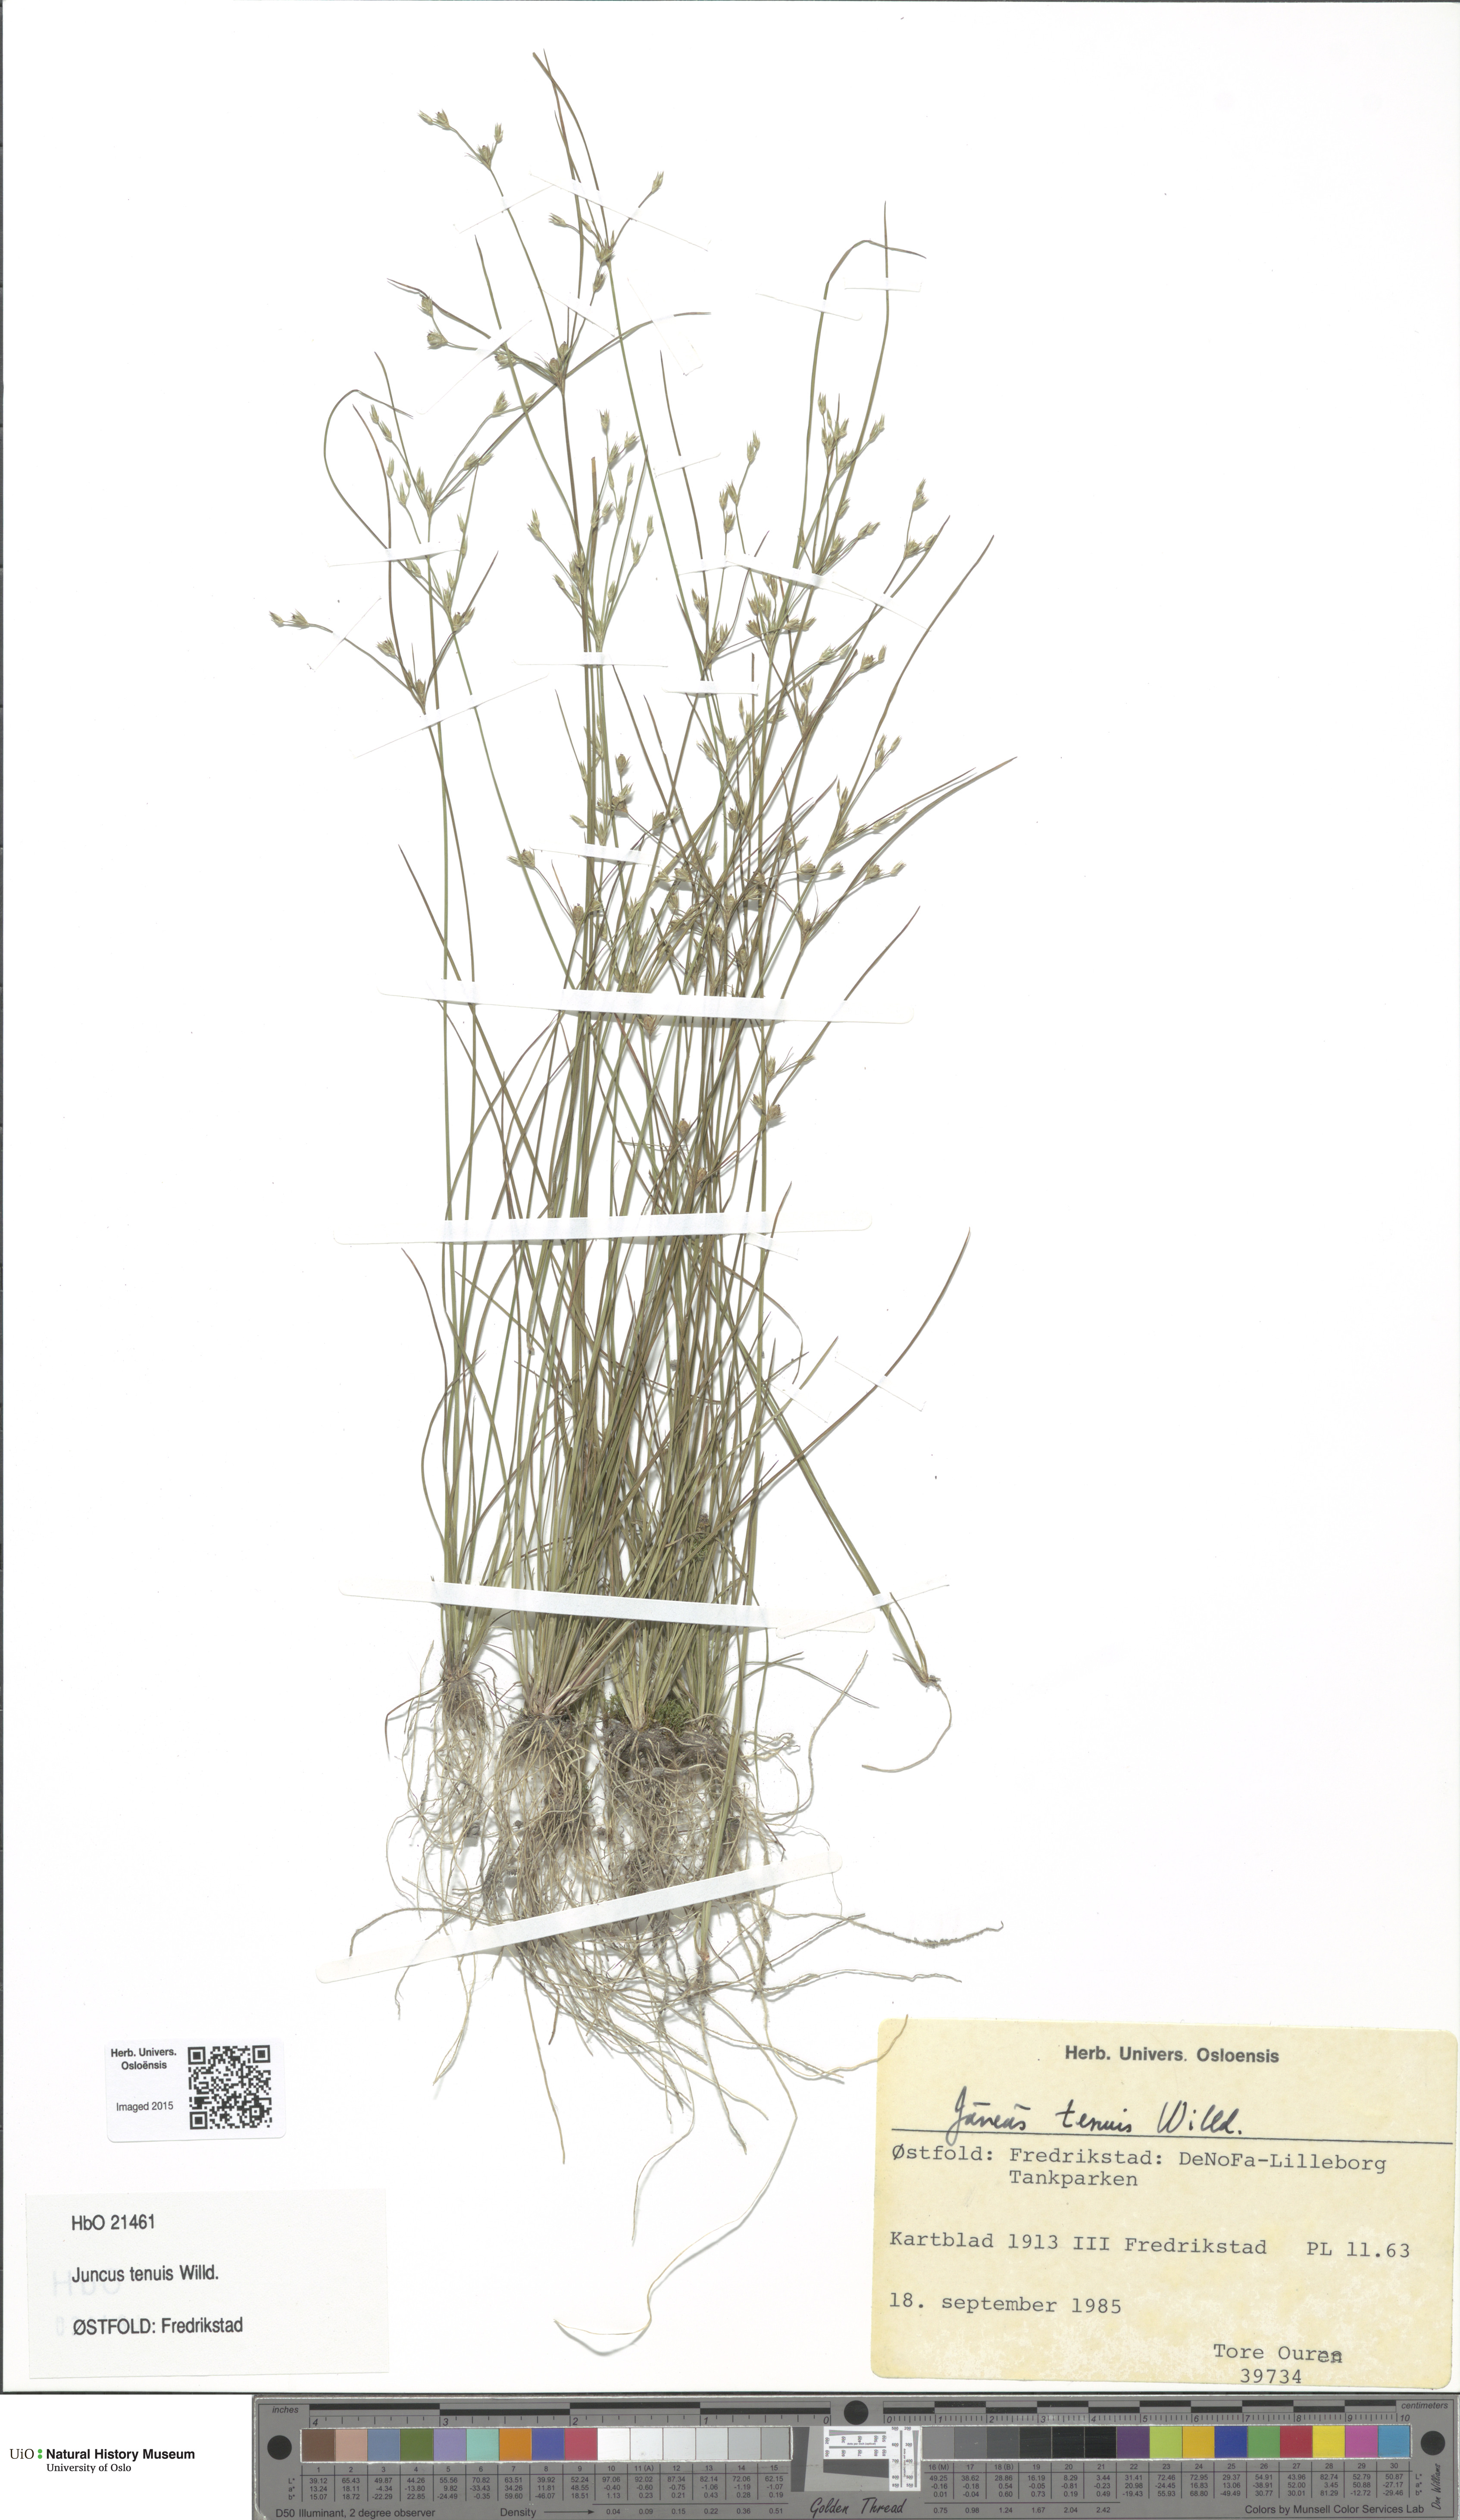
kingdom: Plantae
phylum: Tracheophyta
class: Liliopsida
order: Poales
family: Juncaceae
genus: Juncus
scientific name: Juncus tenuis
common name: Slender rush
